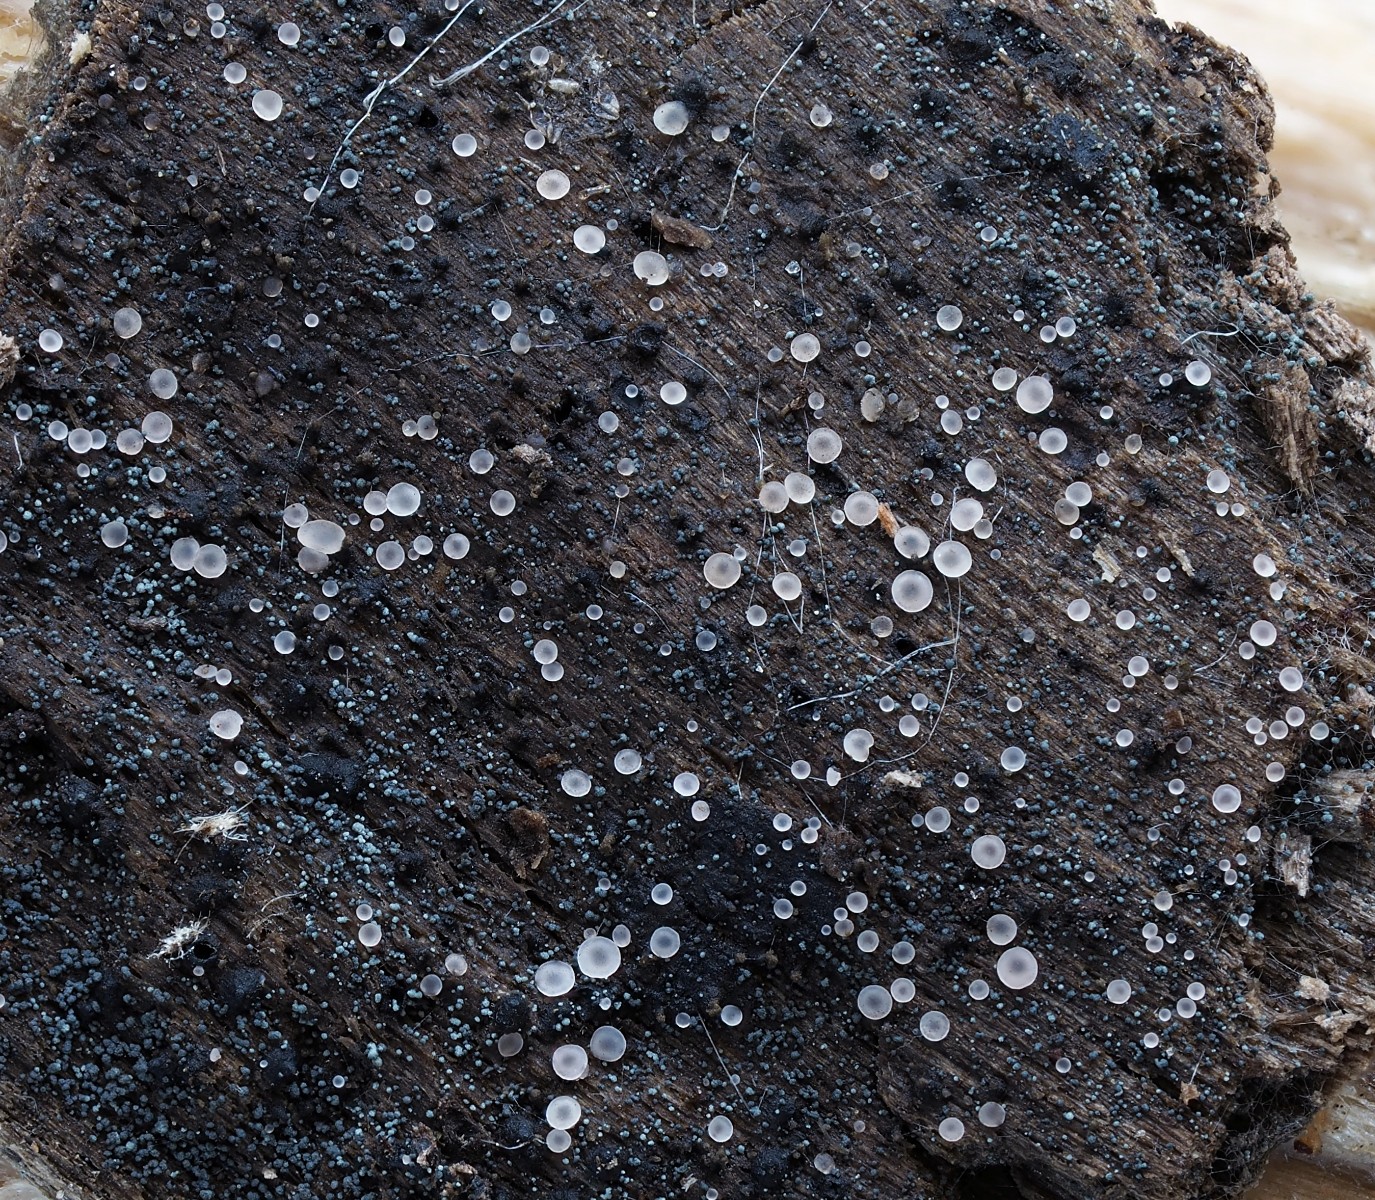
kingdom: Fungi
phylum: Ascomycota
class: Orbiliomycetes
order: Orbiliales
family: Orbiliaceae
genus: Orbilia
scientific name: Orbilia luteorubella
